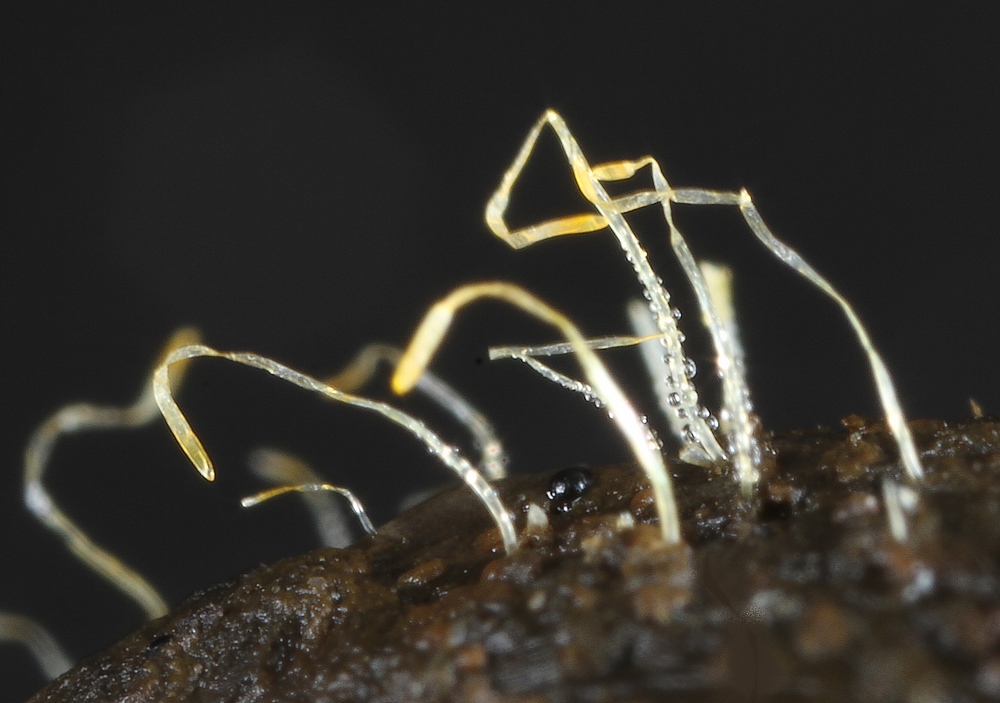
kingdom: Fungi
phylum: Mucoromycota
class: Mucoromycetes
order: Mucorales
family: Pilobolaceae
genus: Pilobolus
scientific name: Pilobolus
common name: boldkaster
